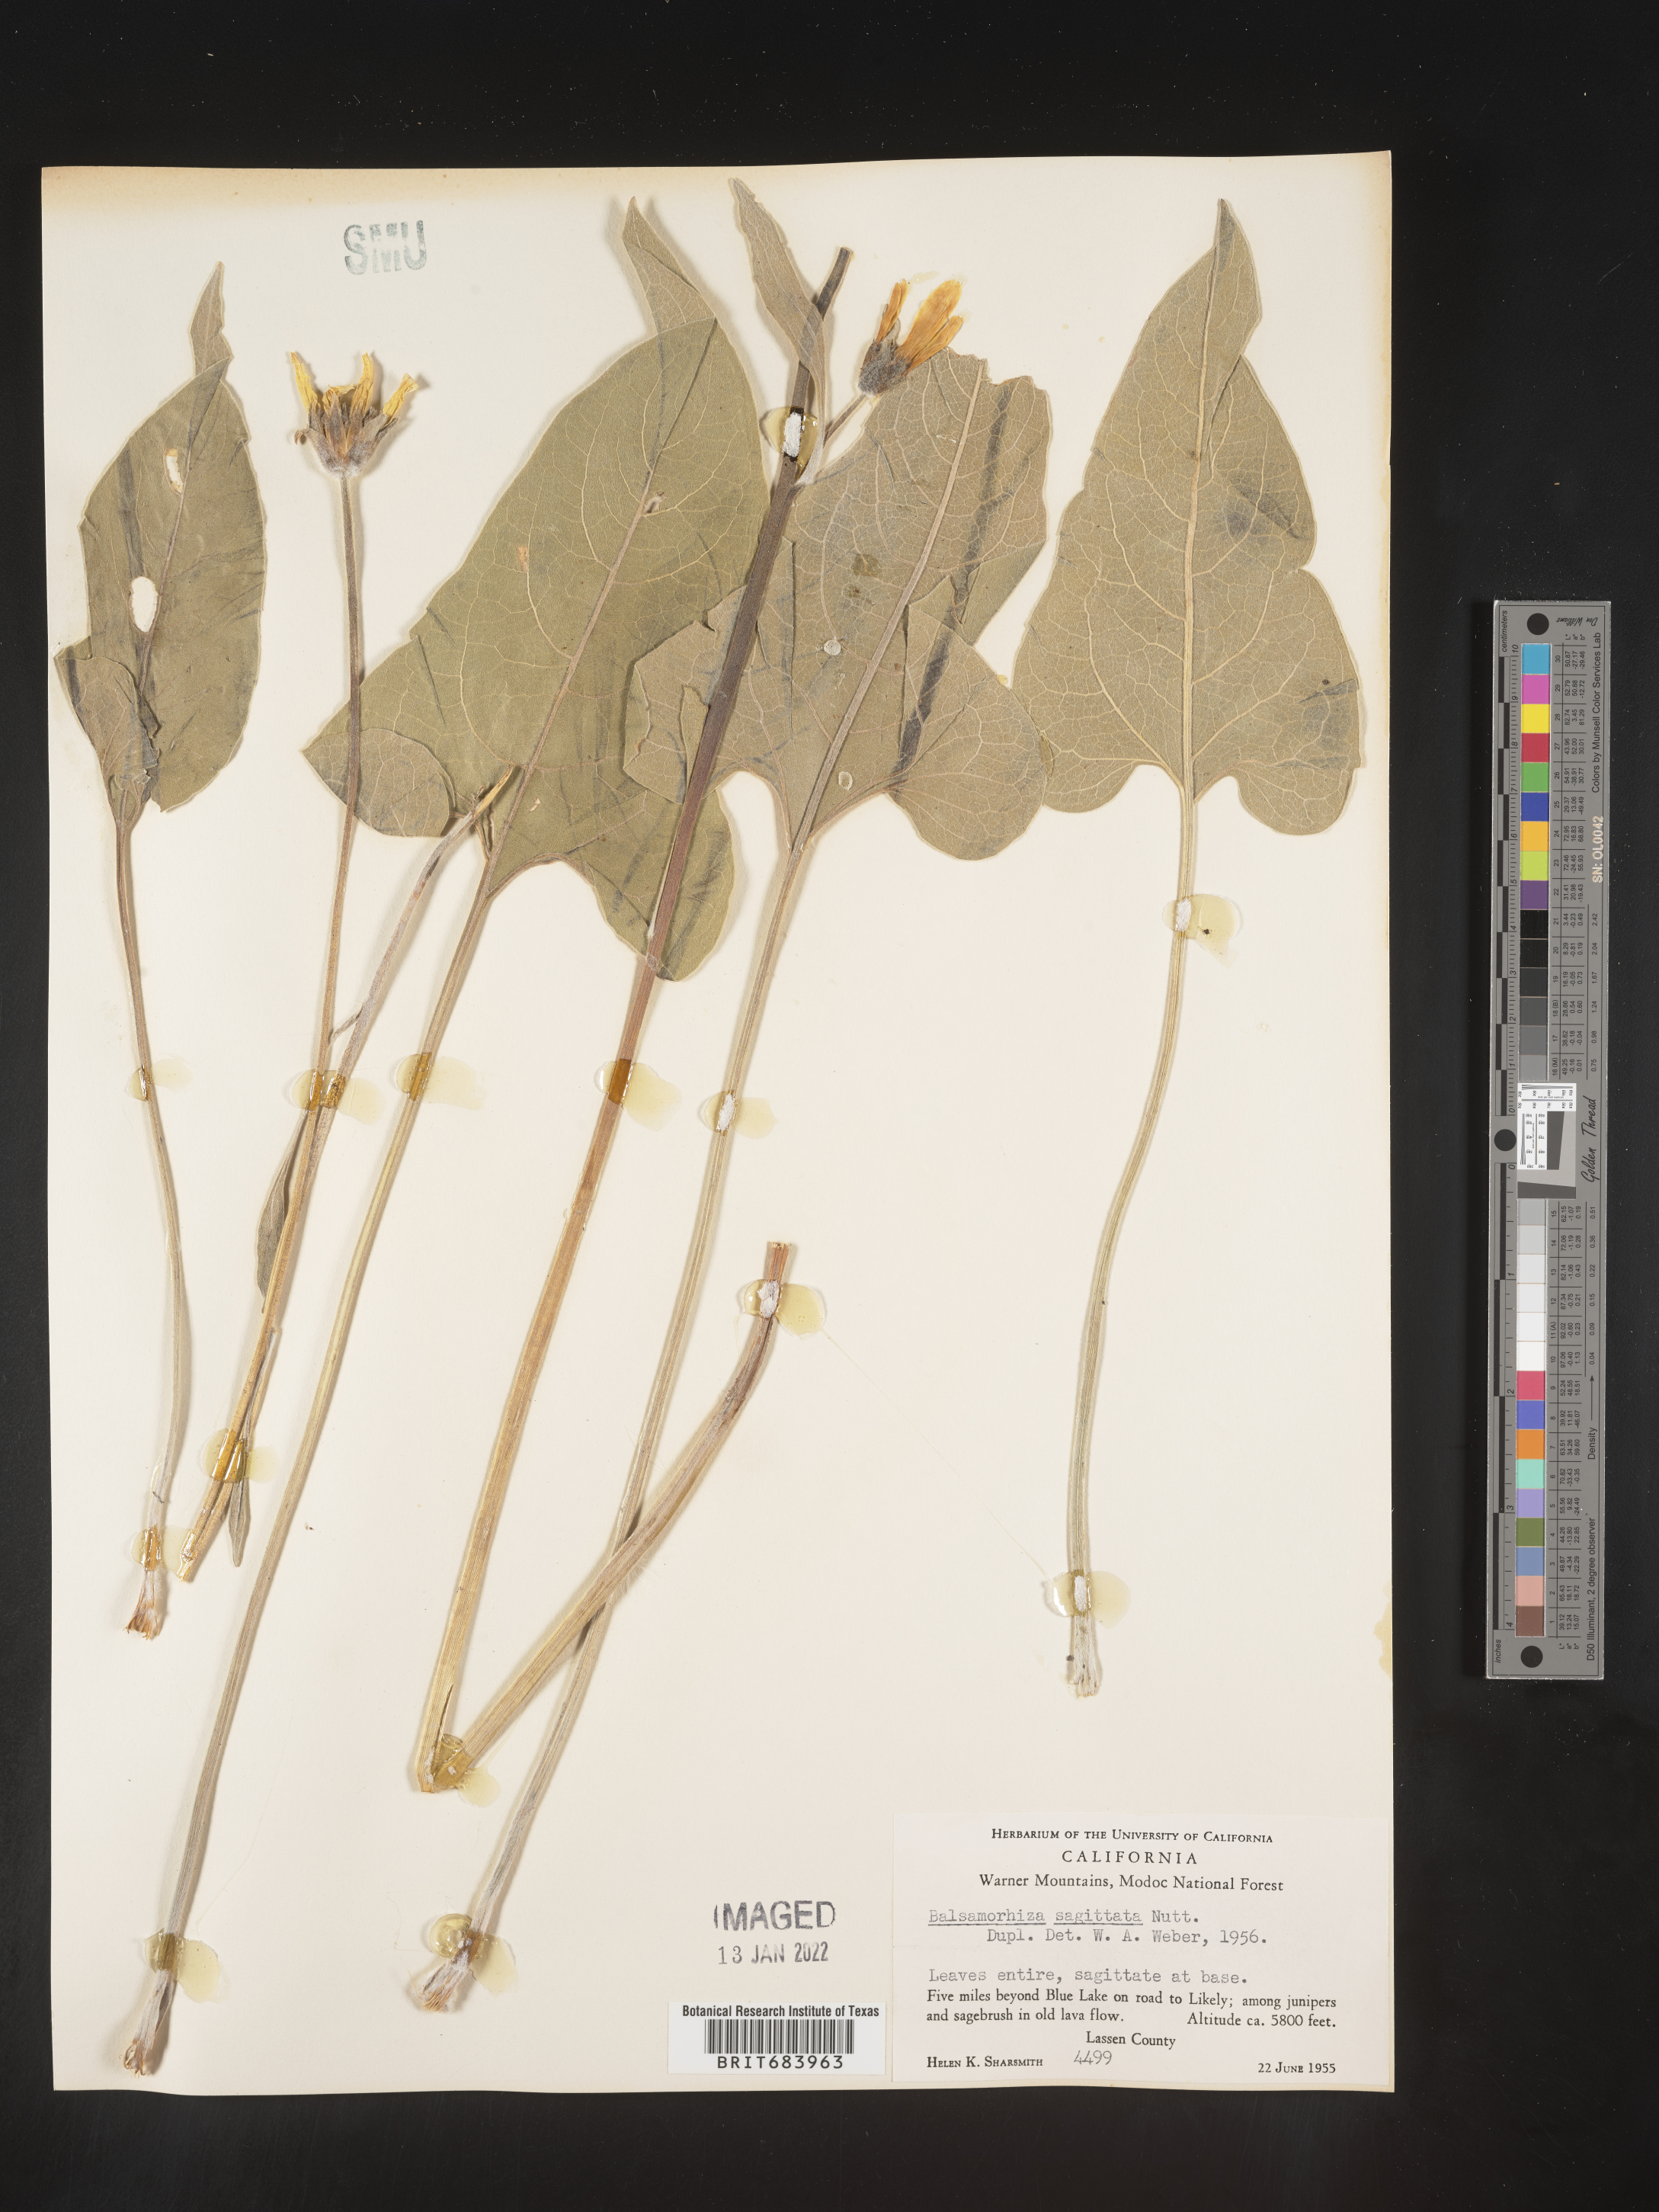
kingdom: Plantae
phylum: Tracheophyta
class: Magnoliopsida
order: Asterales
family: Asteraceae
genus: Wyethia
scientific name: Wyethia sagittata
